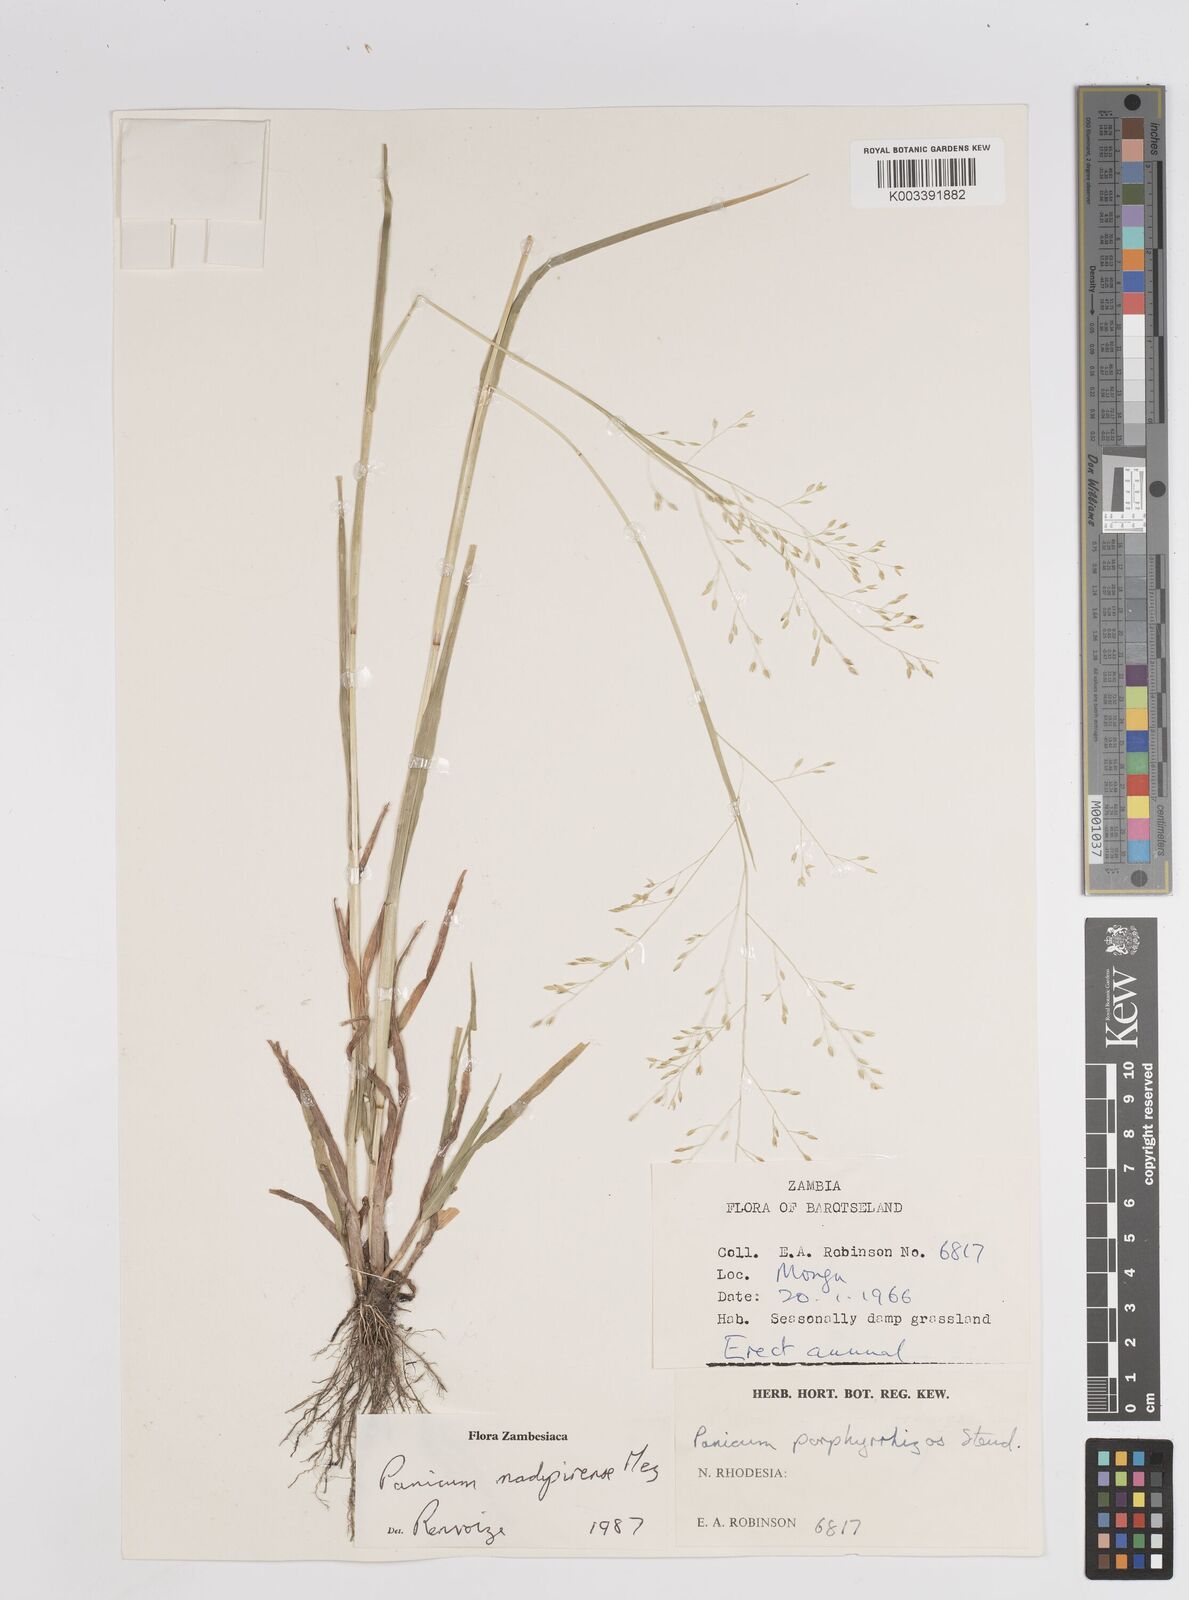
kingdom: Plantae
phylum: Tracheophyta
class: Liliopsida
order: Poales
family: Poaceae
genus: Panicum
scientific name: Panicum madipirense
